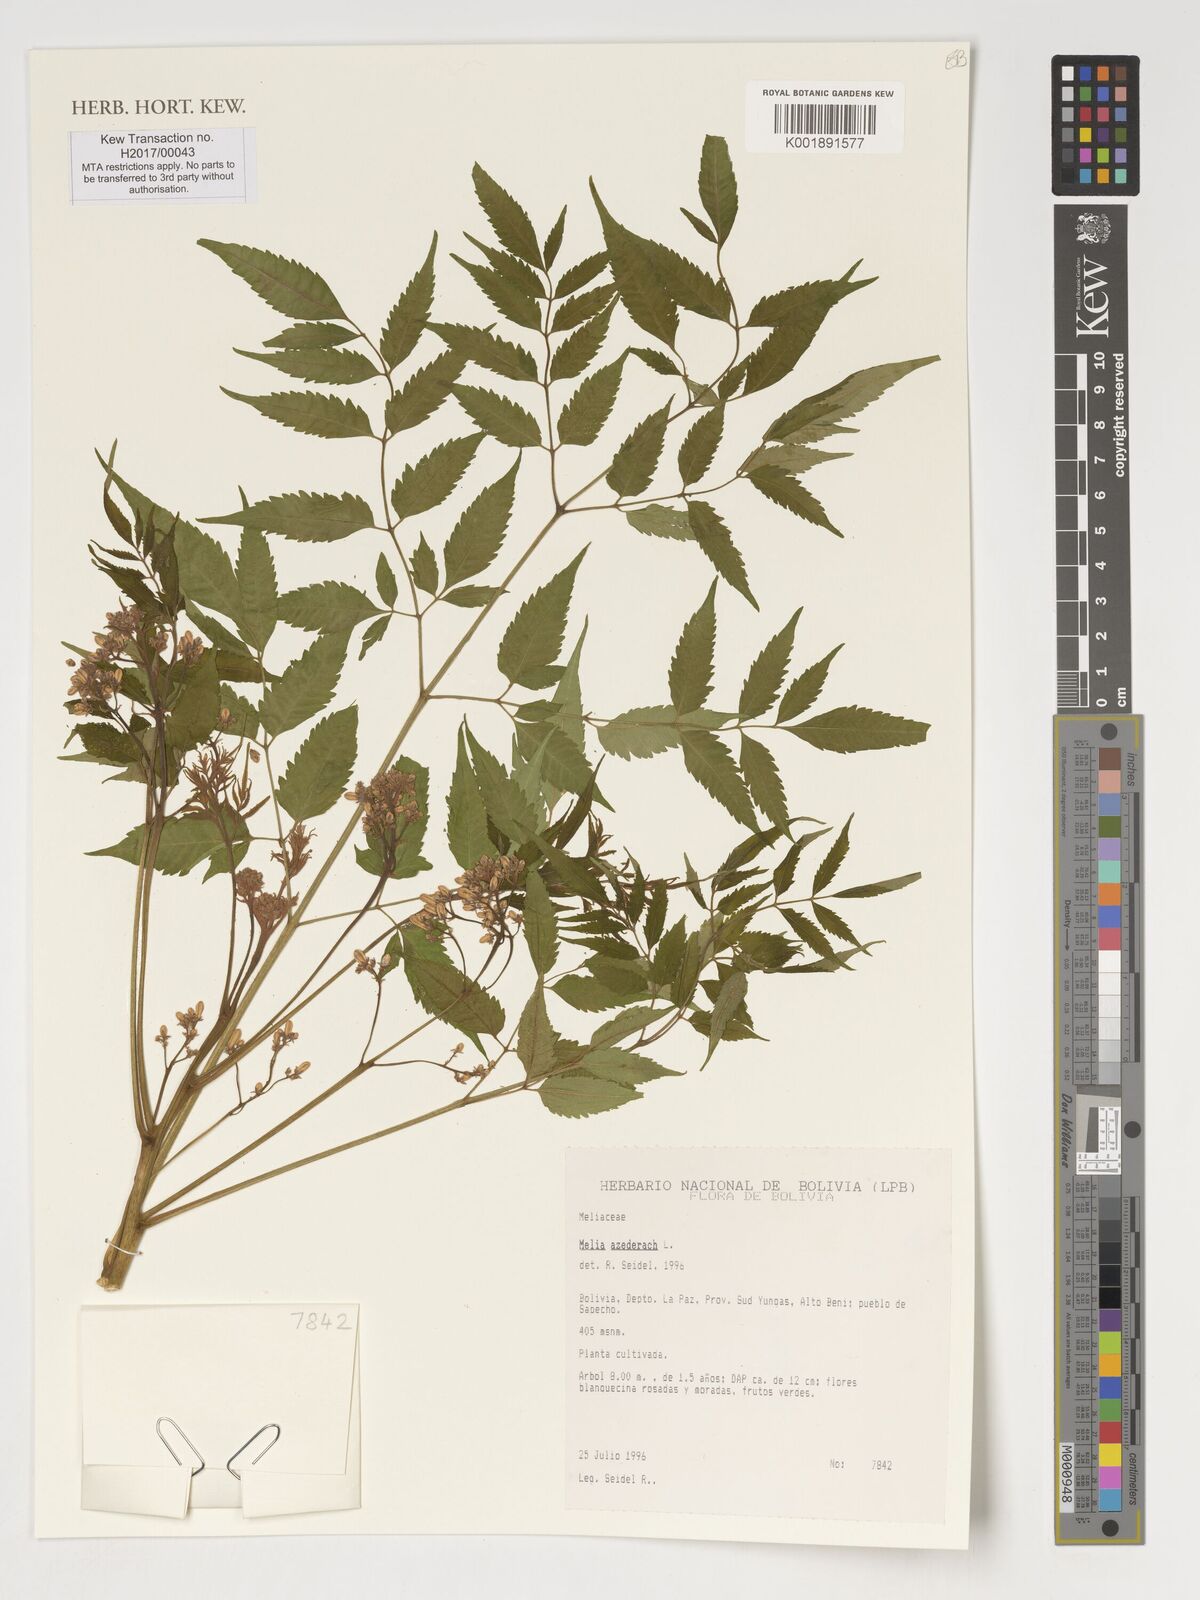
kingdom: Plantae
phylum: Tracheophyta
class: Magnoliopsida
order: Sapindales
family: Meliaceae
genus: Melia
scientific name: Melia azedarach
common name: Chinaberrytree
